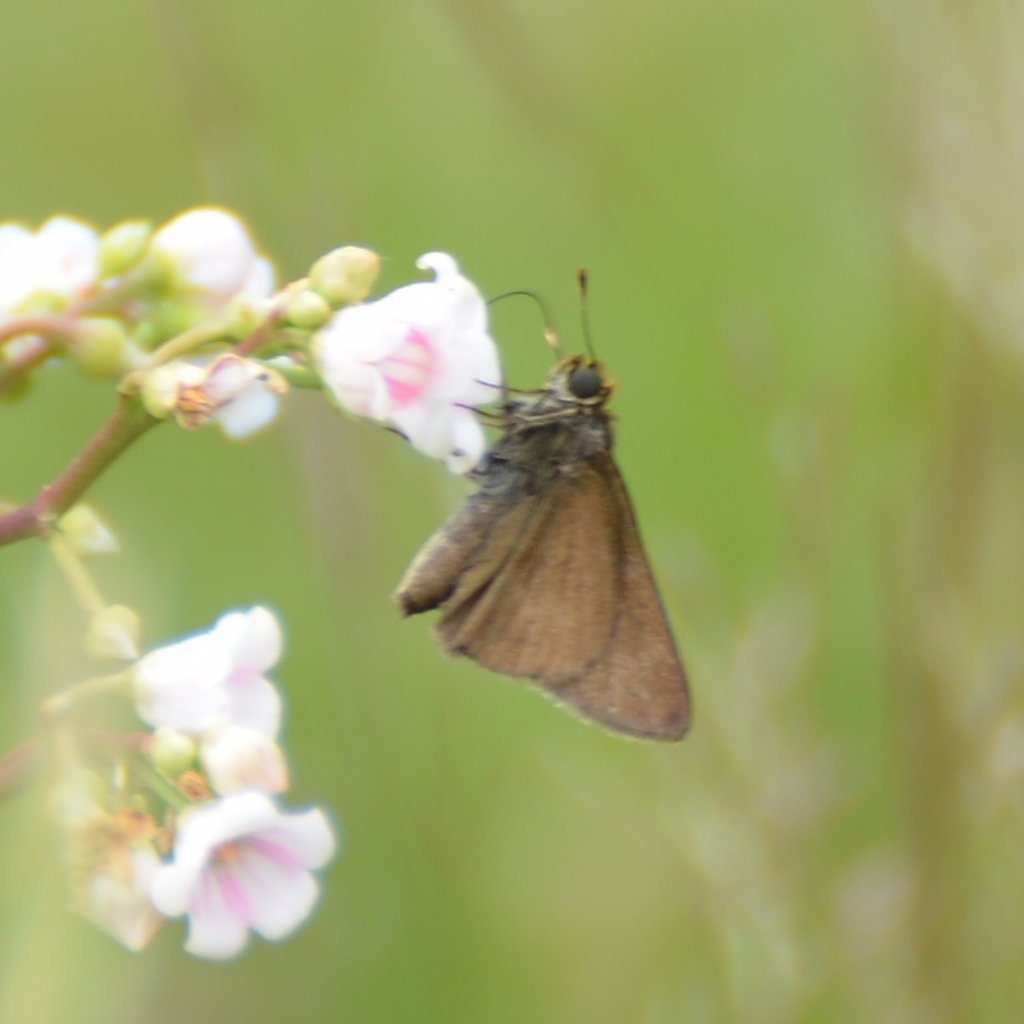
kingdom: Animalia
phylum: Arthropoda
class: Insecta
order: Lepidoptera
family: Hesperiidae
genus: Euphyes
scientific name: Euphyes vestris
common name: Dun Skipper
